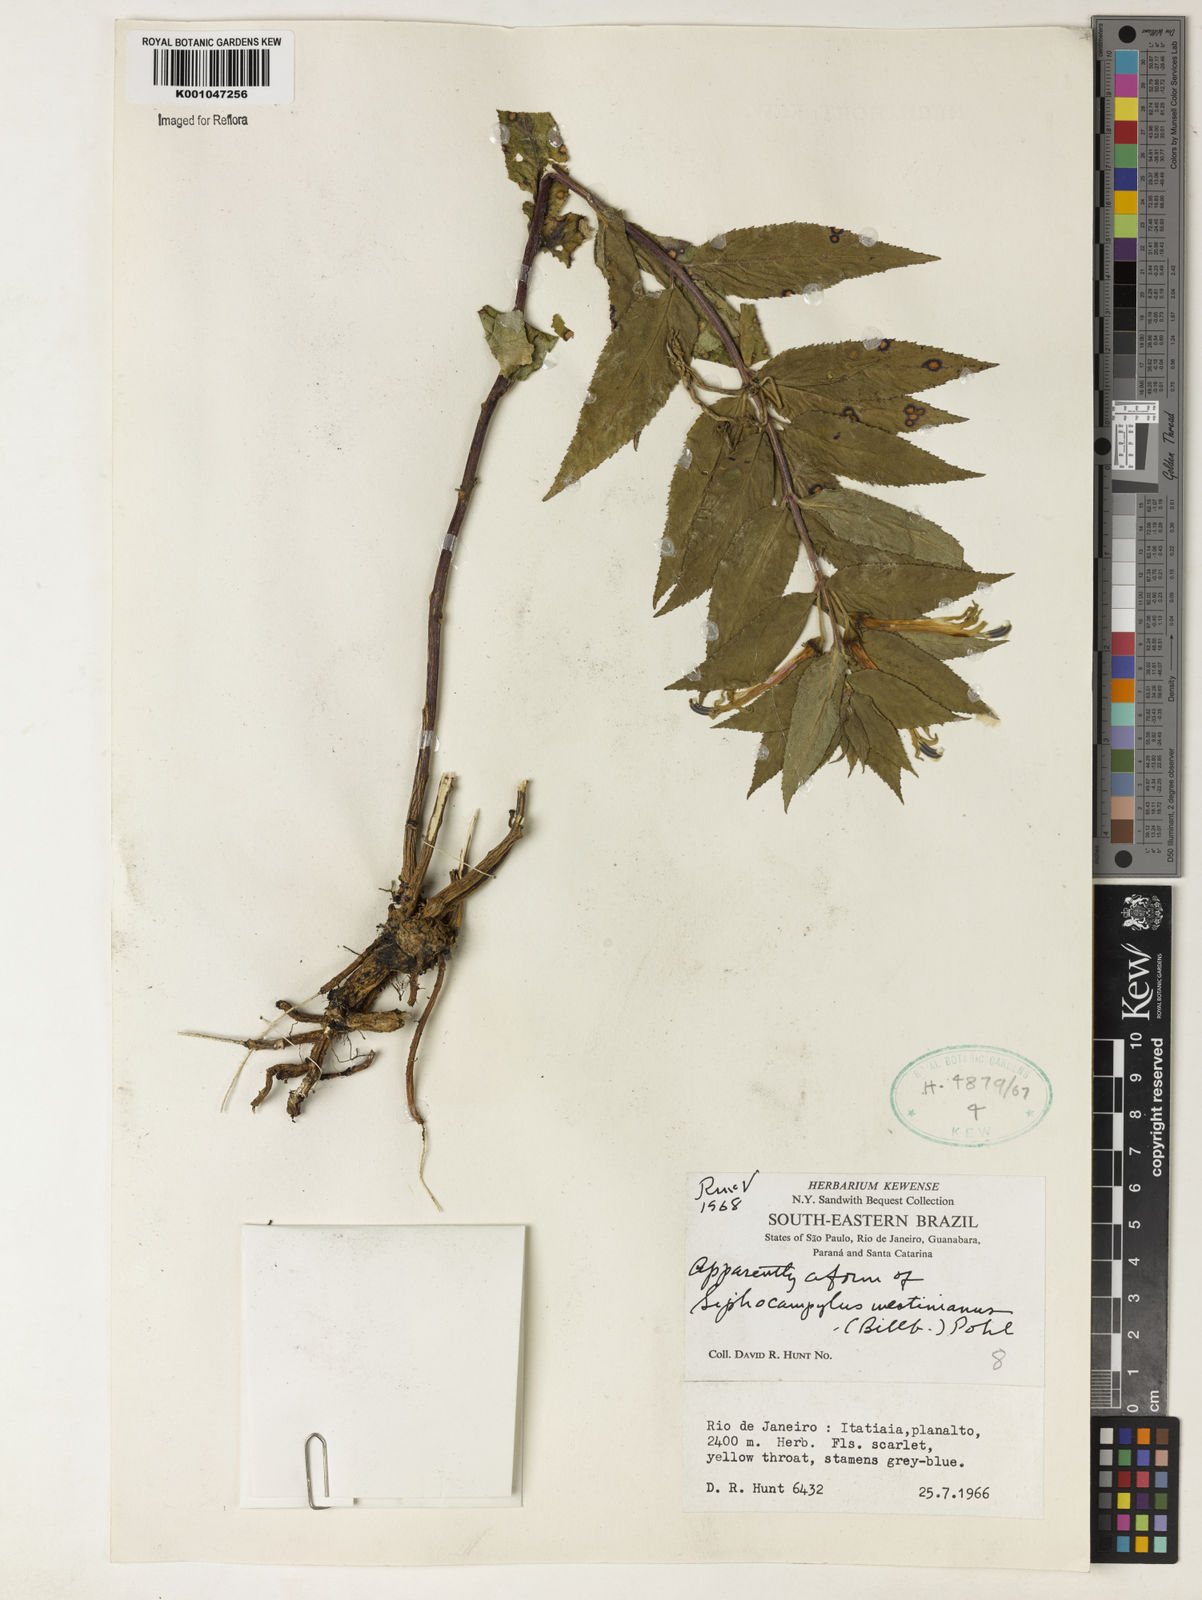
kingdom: Plantae
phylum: Tracheophyta
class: Magnoliopsida
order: Asterales
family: Campanulaceae
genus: Siphocampylus
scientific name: Siphocampylus westinianus
